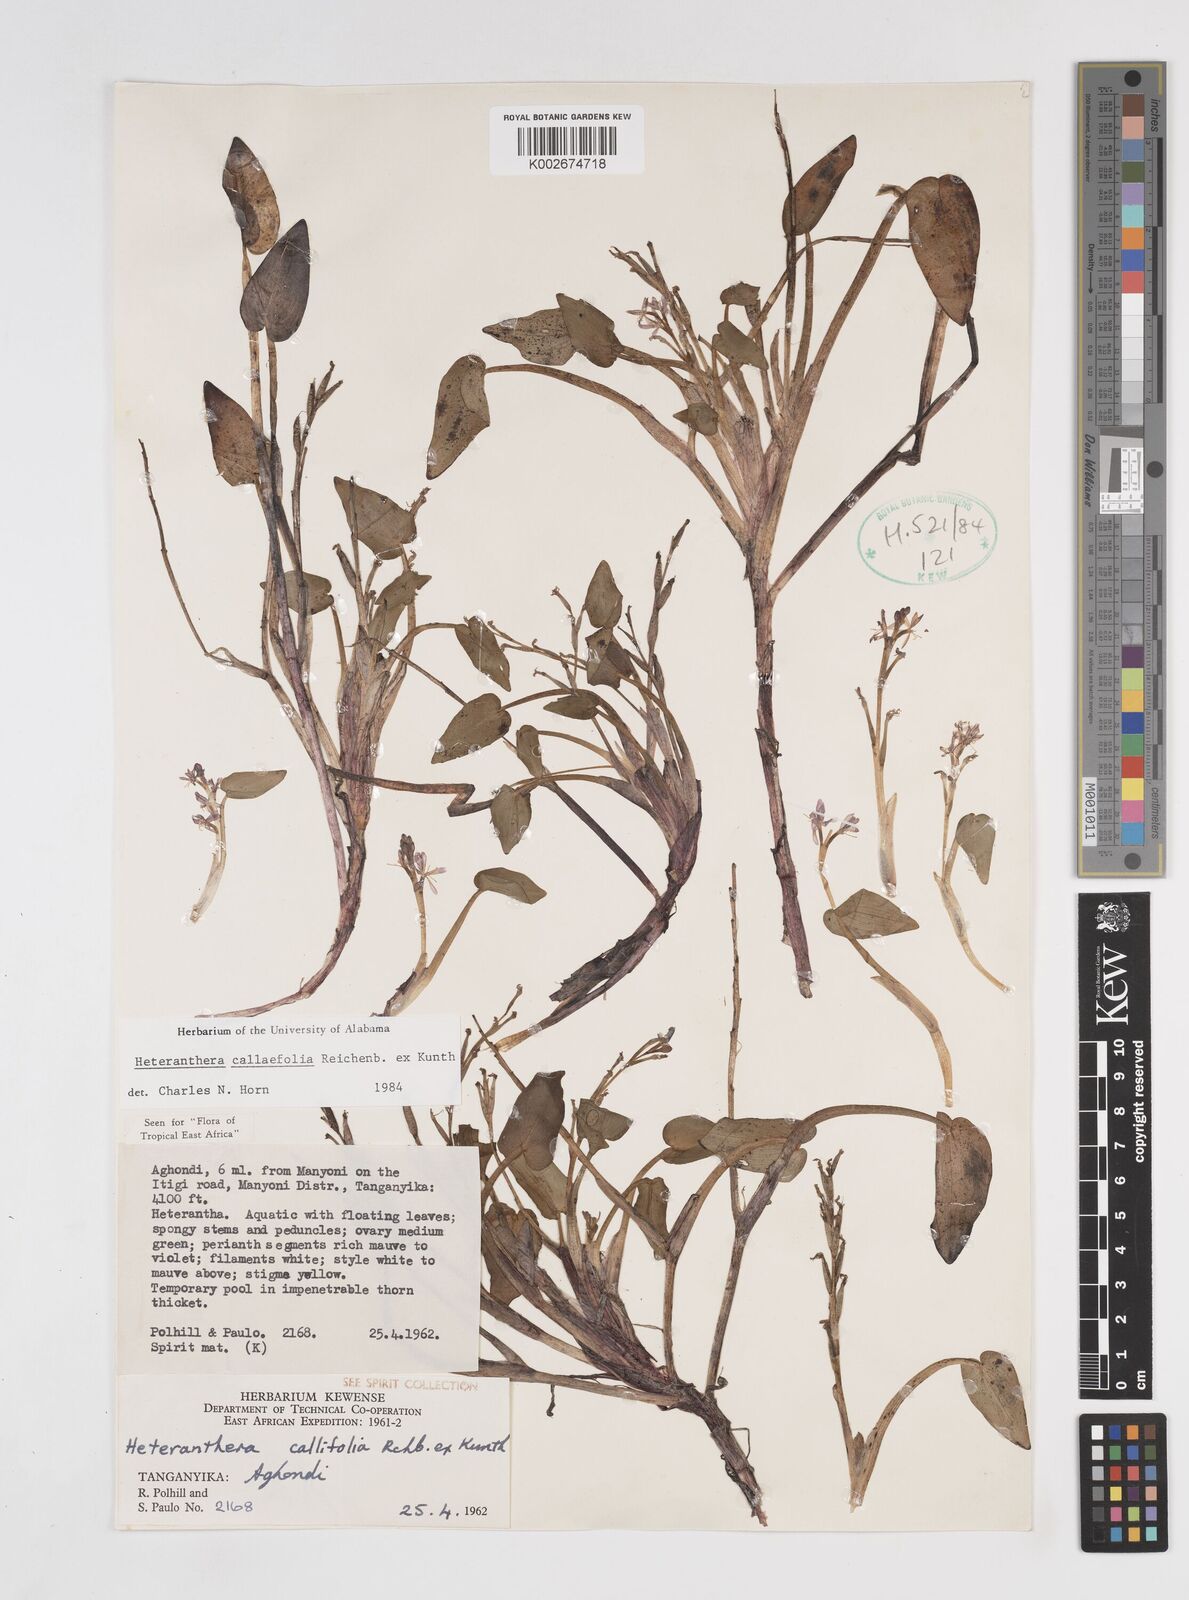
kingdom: Plantae
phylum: Tracheophyta
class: Liliopsida
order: Commelinales
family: Pontederiaceae
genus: Heteranthera
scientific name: Heteranthera callifolia
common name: Mud plantain
